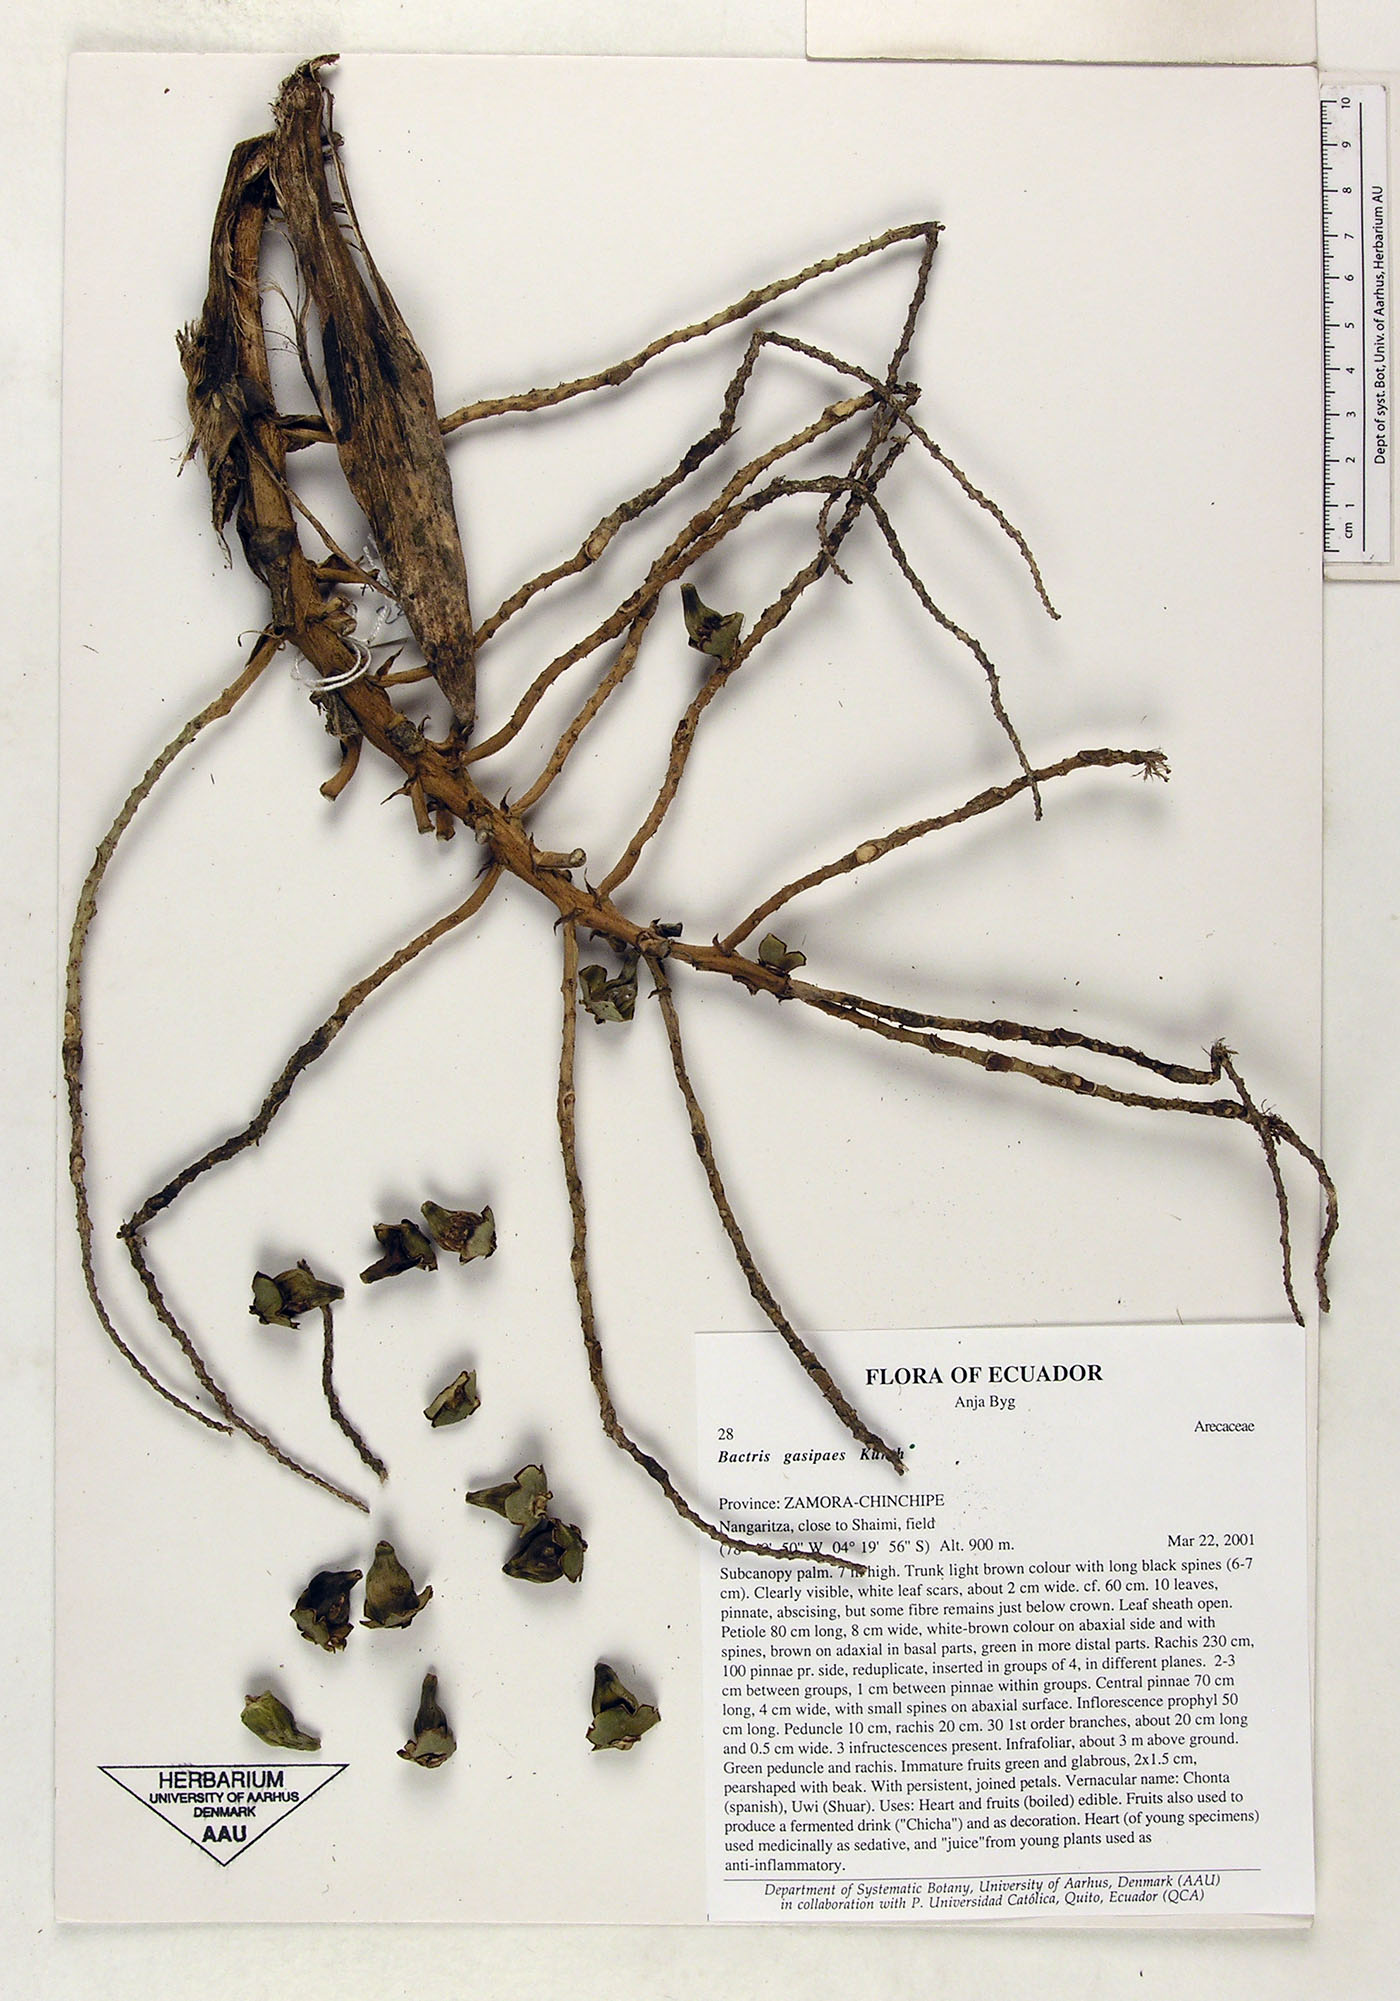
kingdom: Plantae
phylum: Tracheophyta
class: Liliopsida
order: Arecales
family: Arecaceae
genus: Bactris
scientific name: Bactris gasipaes
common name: Peach palm
